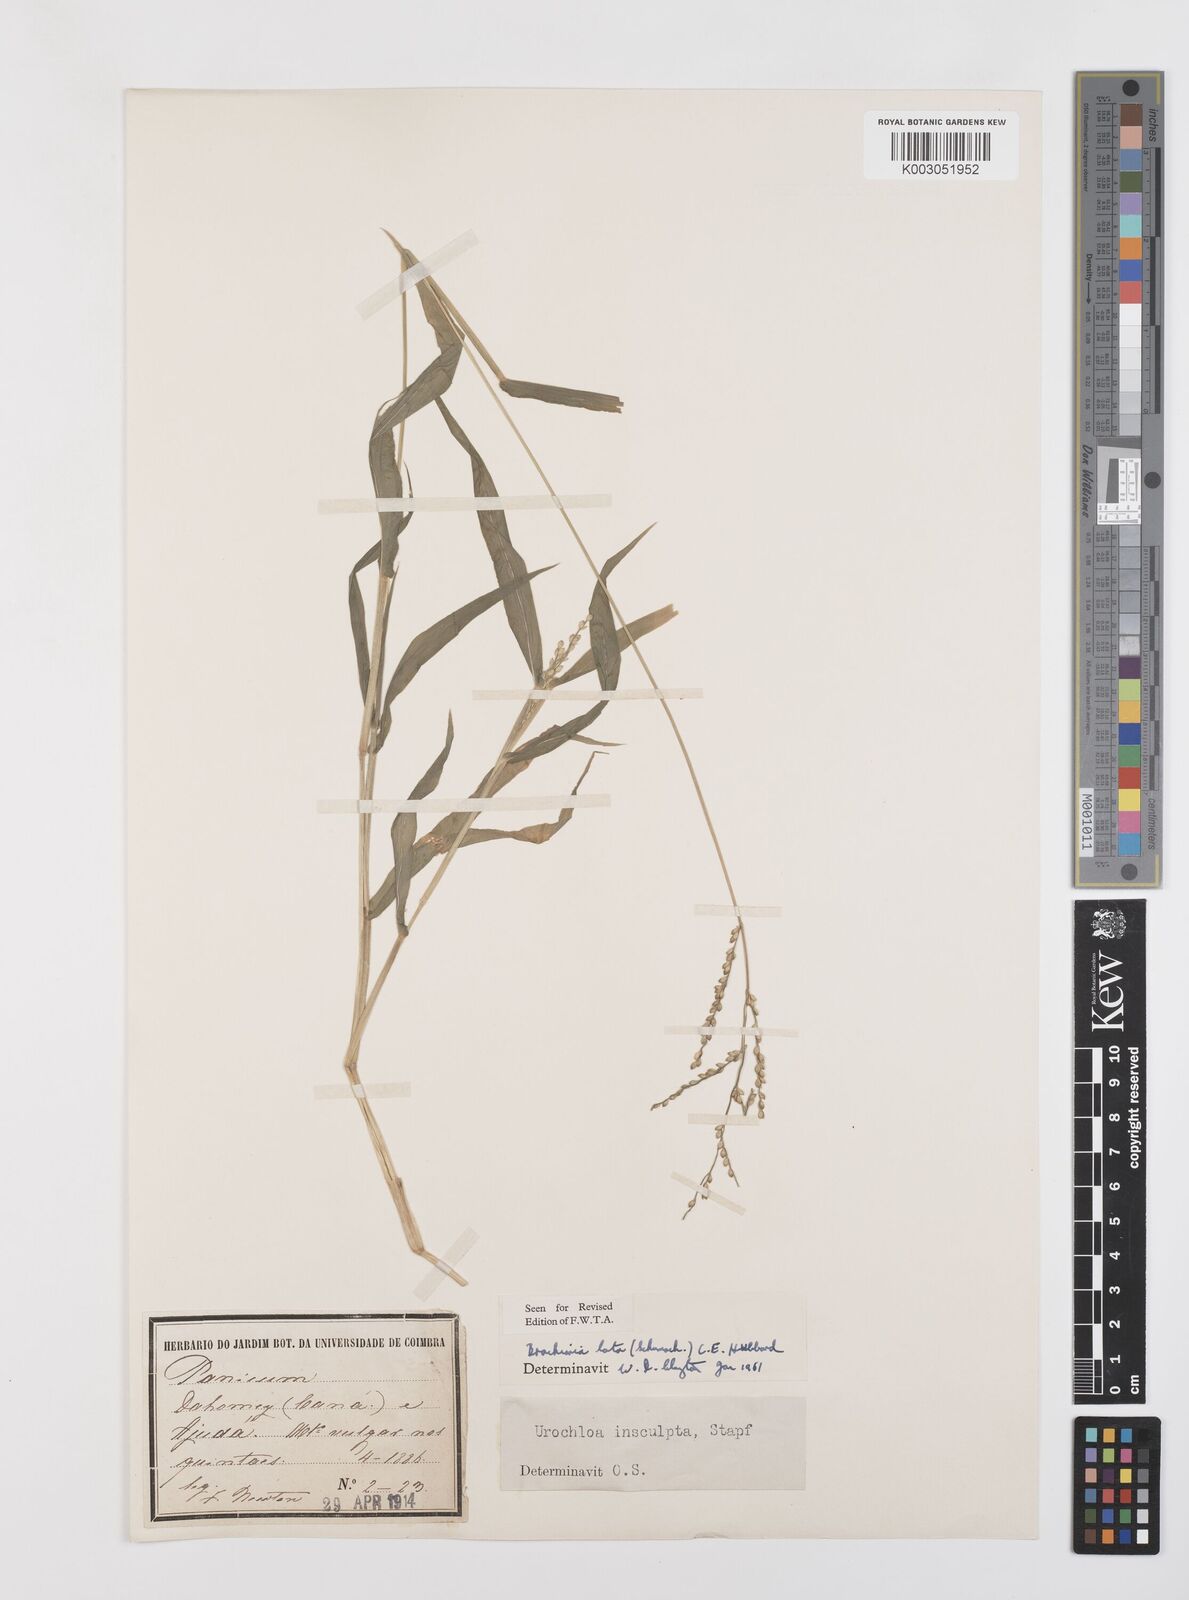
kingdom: Plantae
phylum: Tracheophyta
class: Liliopsida
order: Poales
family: Poaceae
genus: Urochloa
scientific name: Urochloa lata
